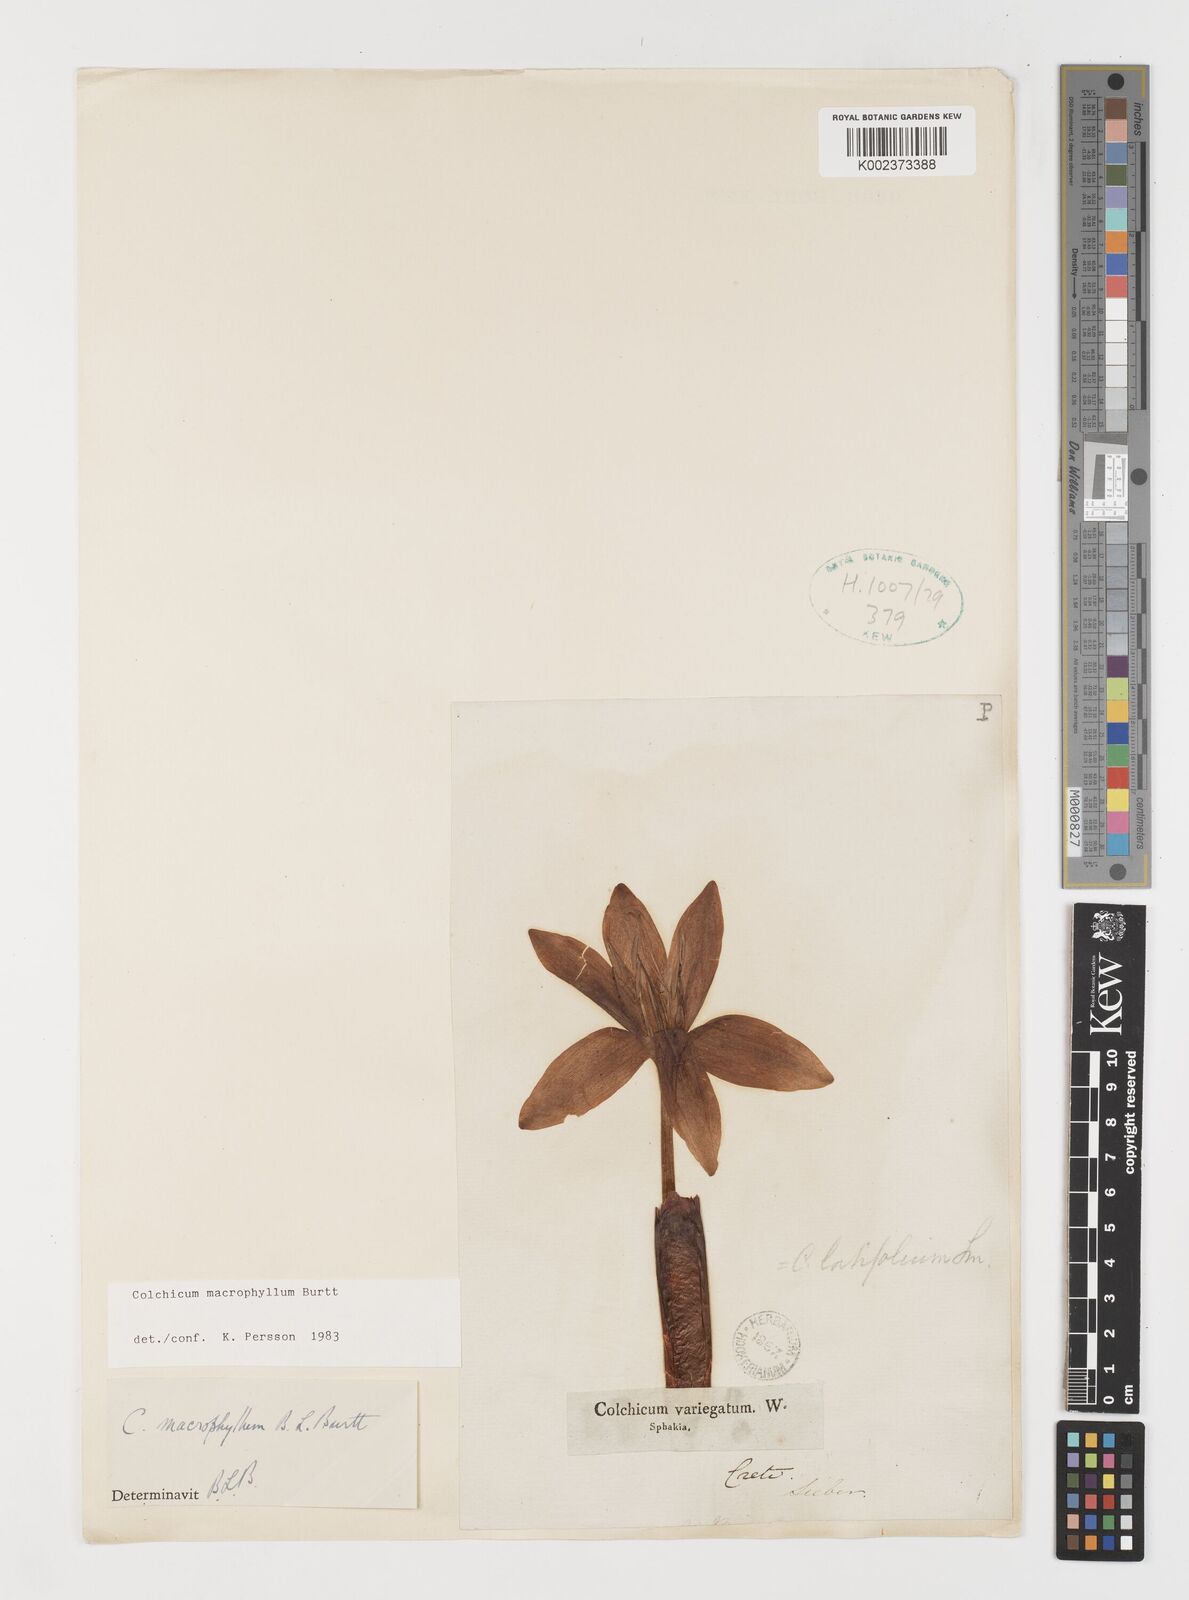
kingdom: Plantae
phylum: Tracheophyta
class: Liliopsida
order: Liliales
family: Colchicaceae
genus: Colchicum
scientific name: Colchicum macrophyllum
